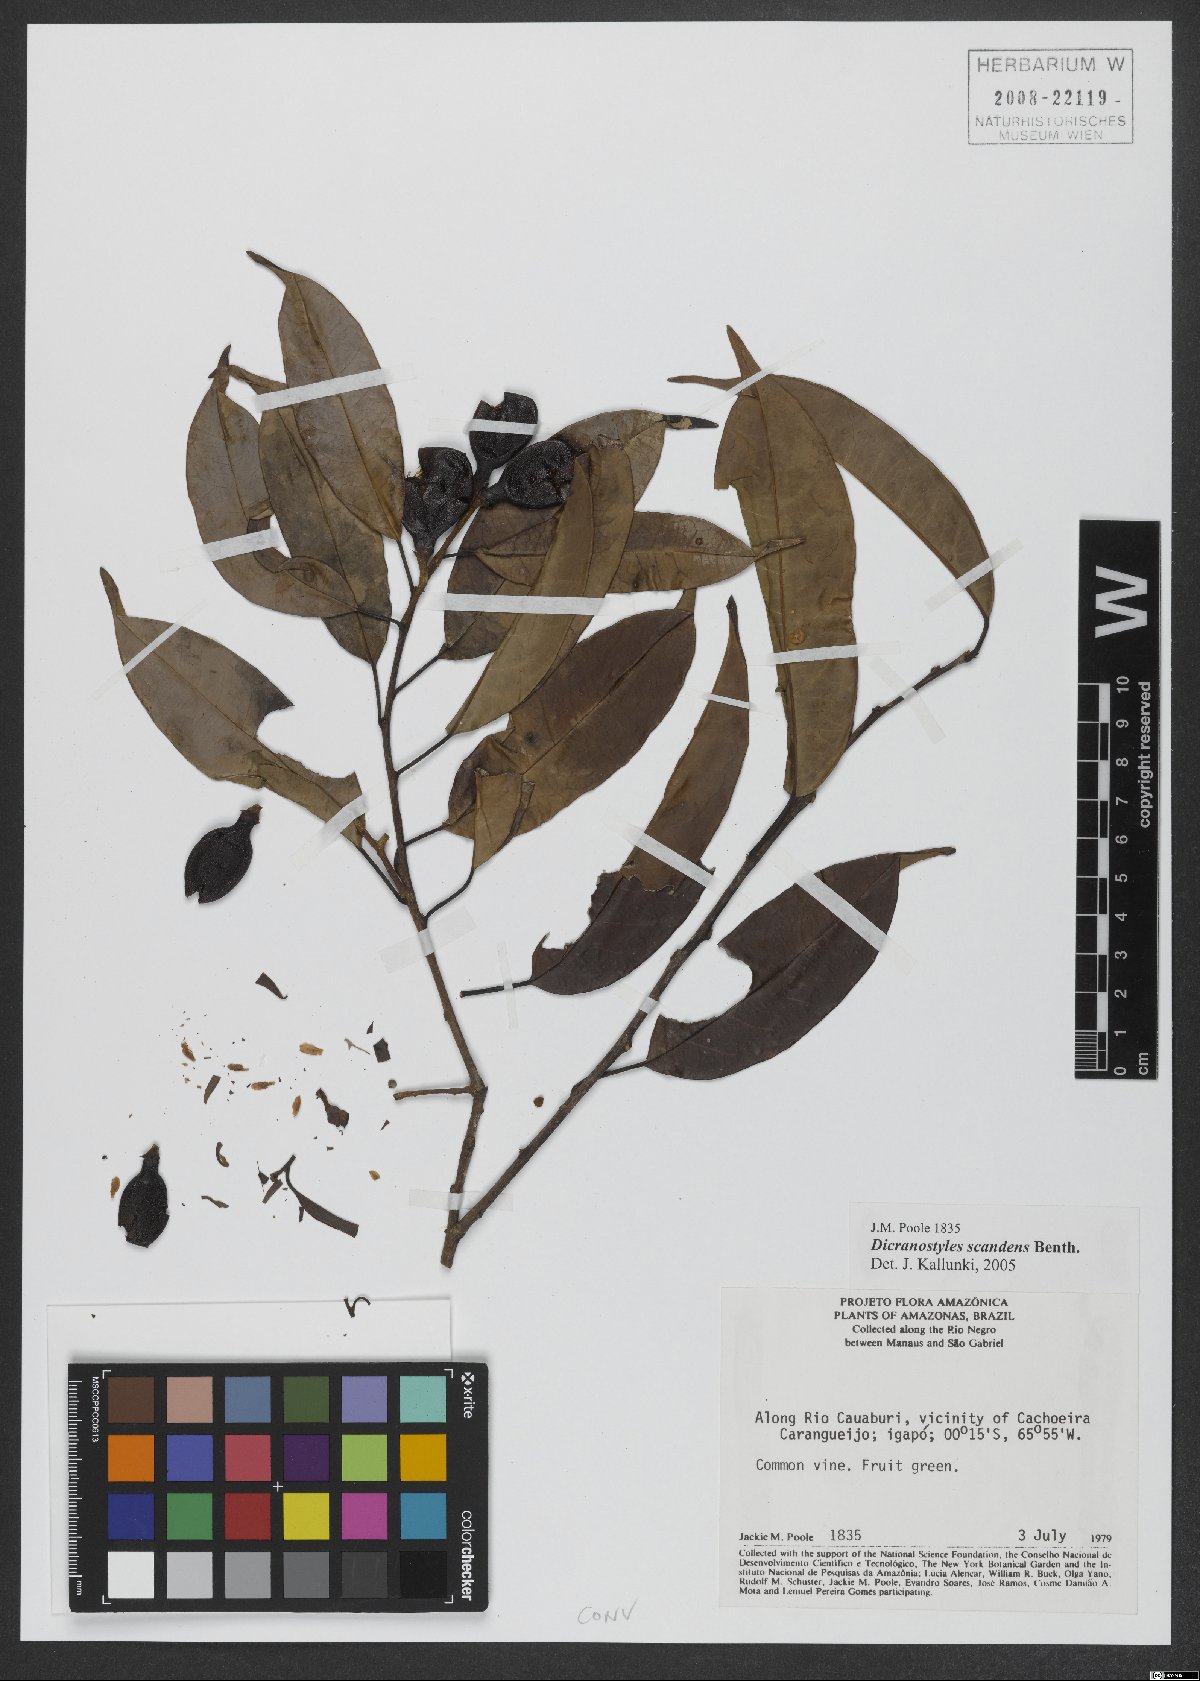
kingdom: Plantae
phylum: Tracheophyta
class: Magnoliopsida
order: Solanales
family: Convolvulaceae
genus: Dicranostyles
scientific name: Dicranostyles scandens
